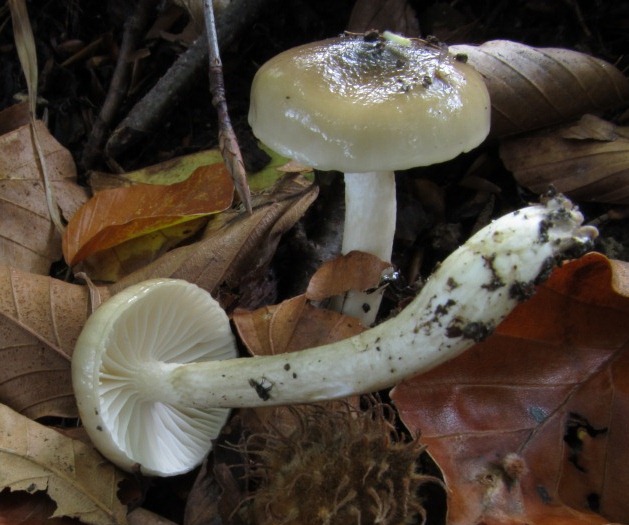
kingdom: Fungi
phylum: Basidiomycota
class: Agaricomycetes
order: Agaricales
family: Hygrophoraceae
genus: Hygrophorus
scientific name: Hygrophorus mesotephrus
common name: askegrå sneglehat
